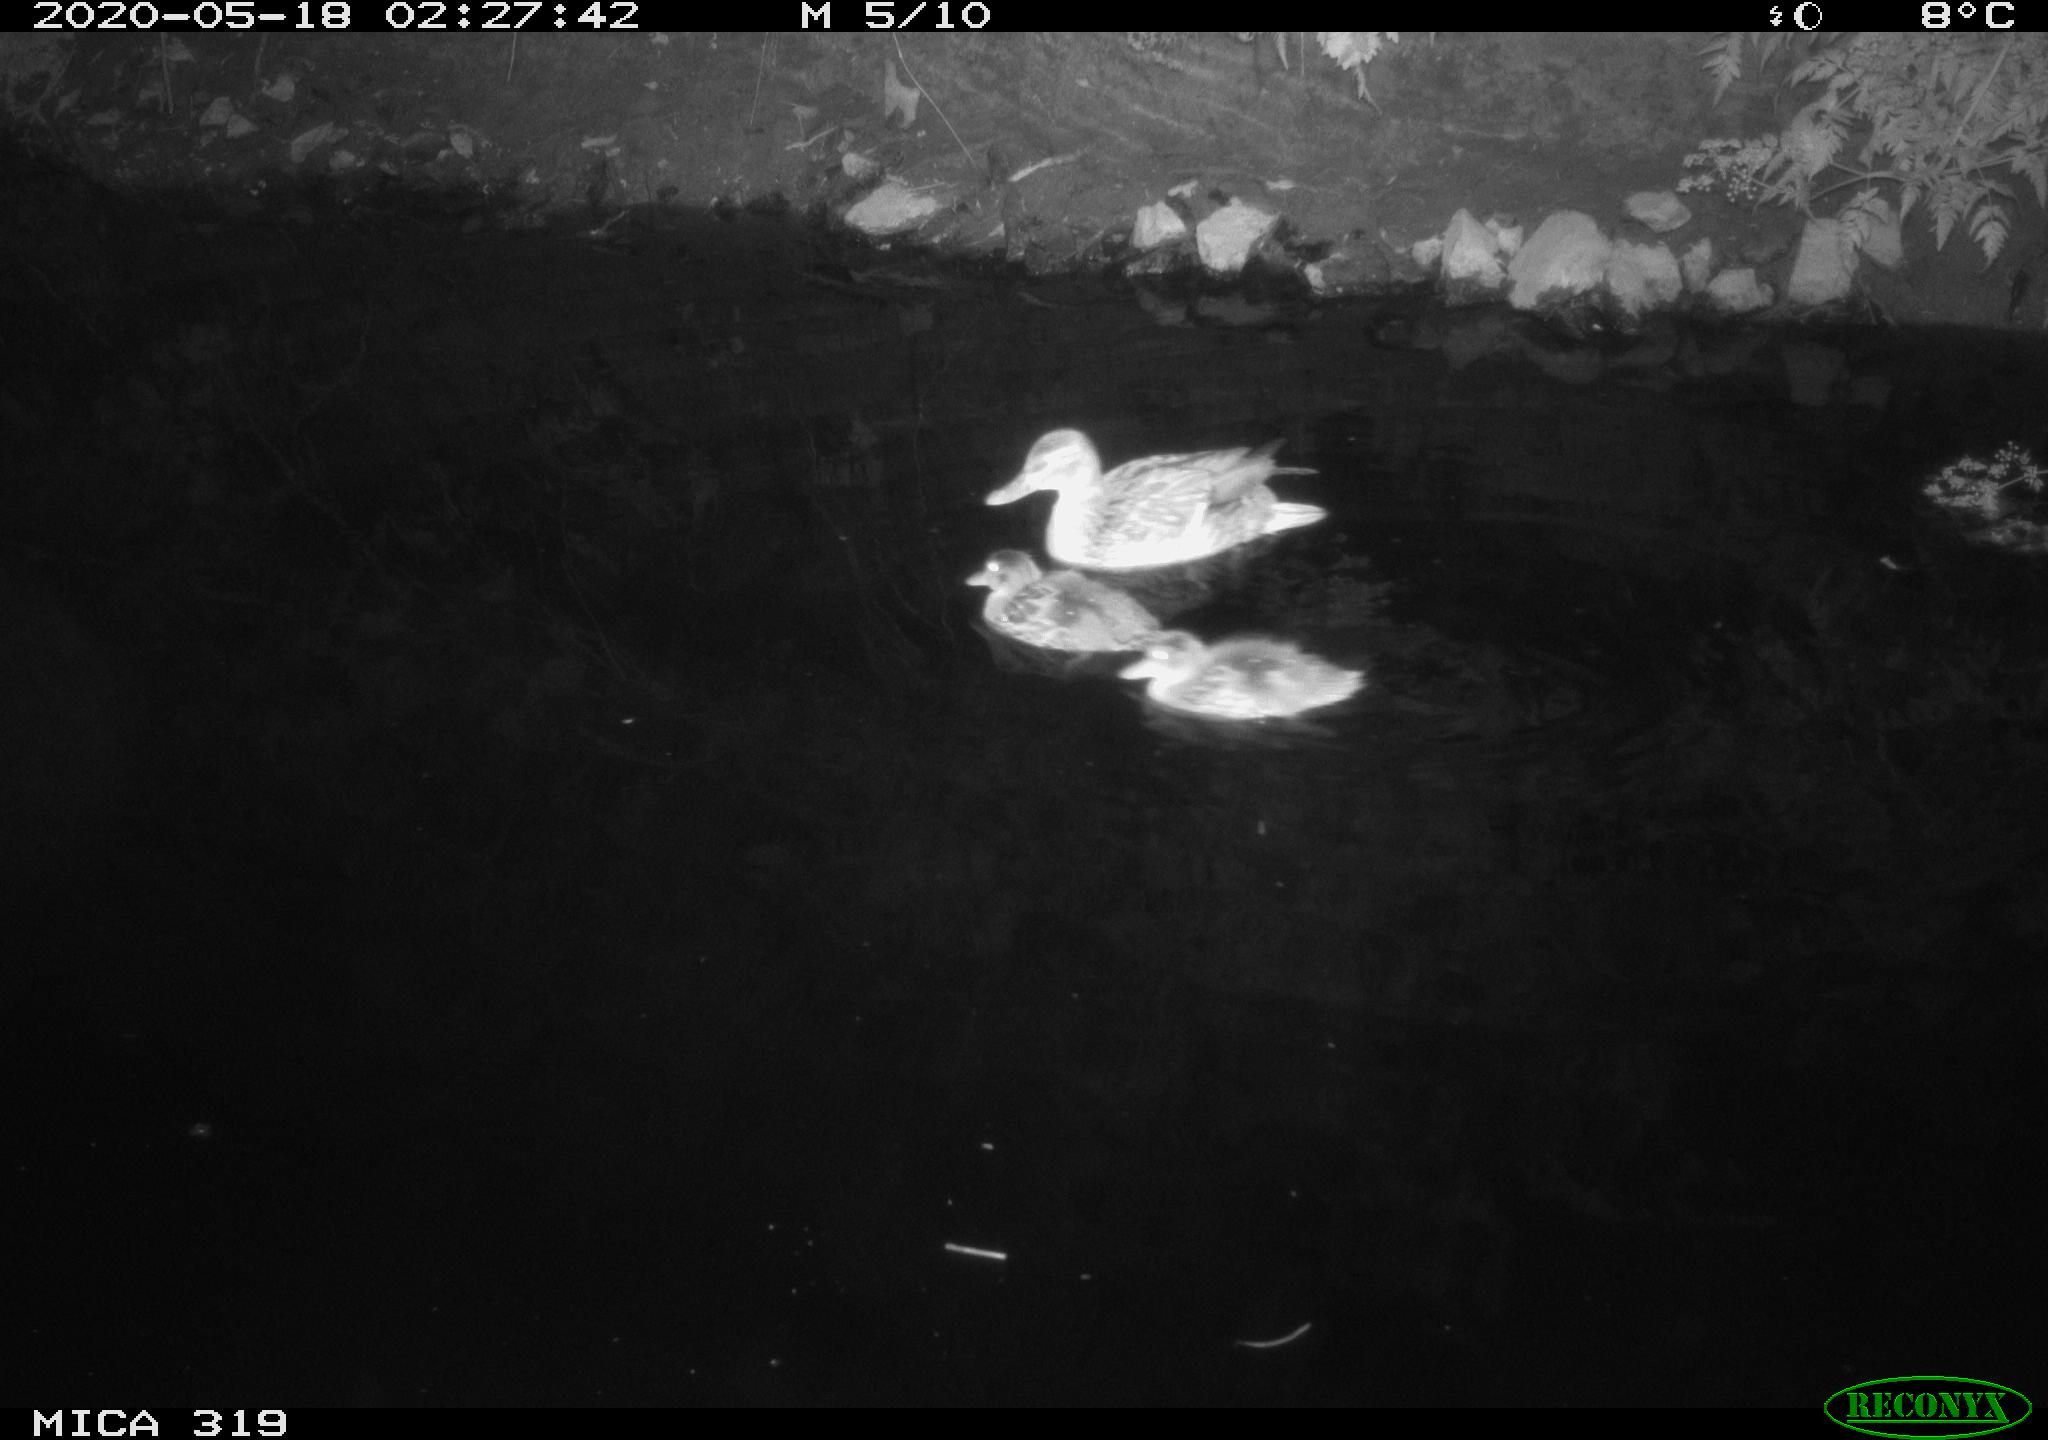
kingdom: Animalia
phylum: Chordata
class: Aves
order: Anseriformes
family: Anatidae
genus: Anas
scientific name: Anas platyrhynchos
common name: Mallard
